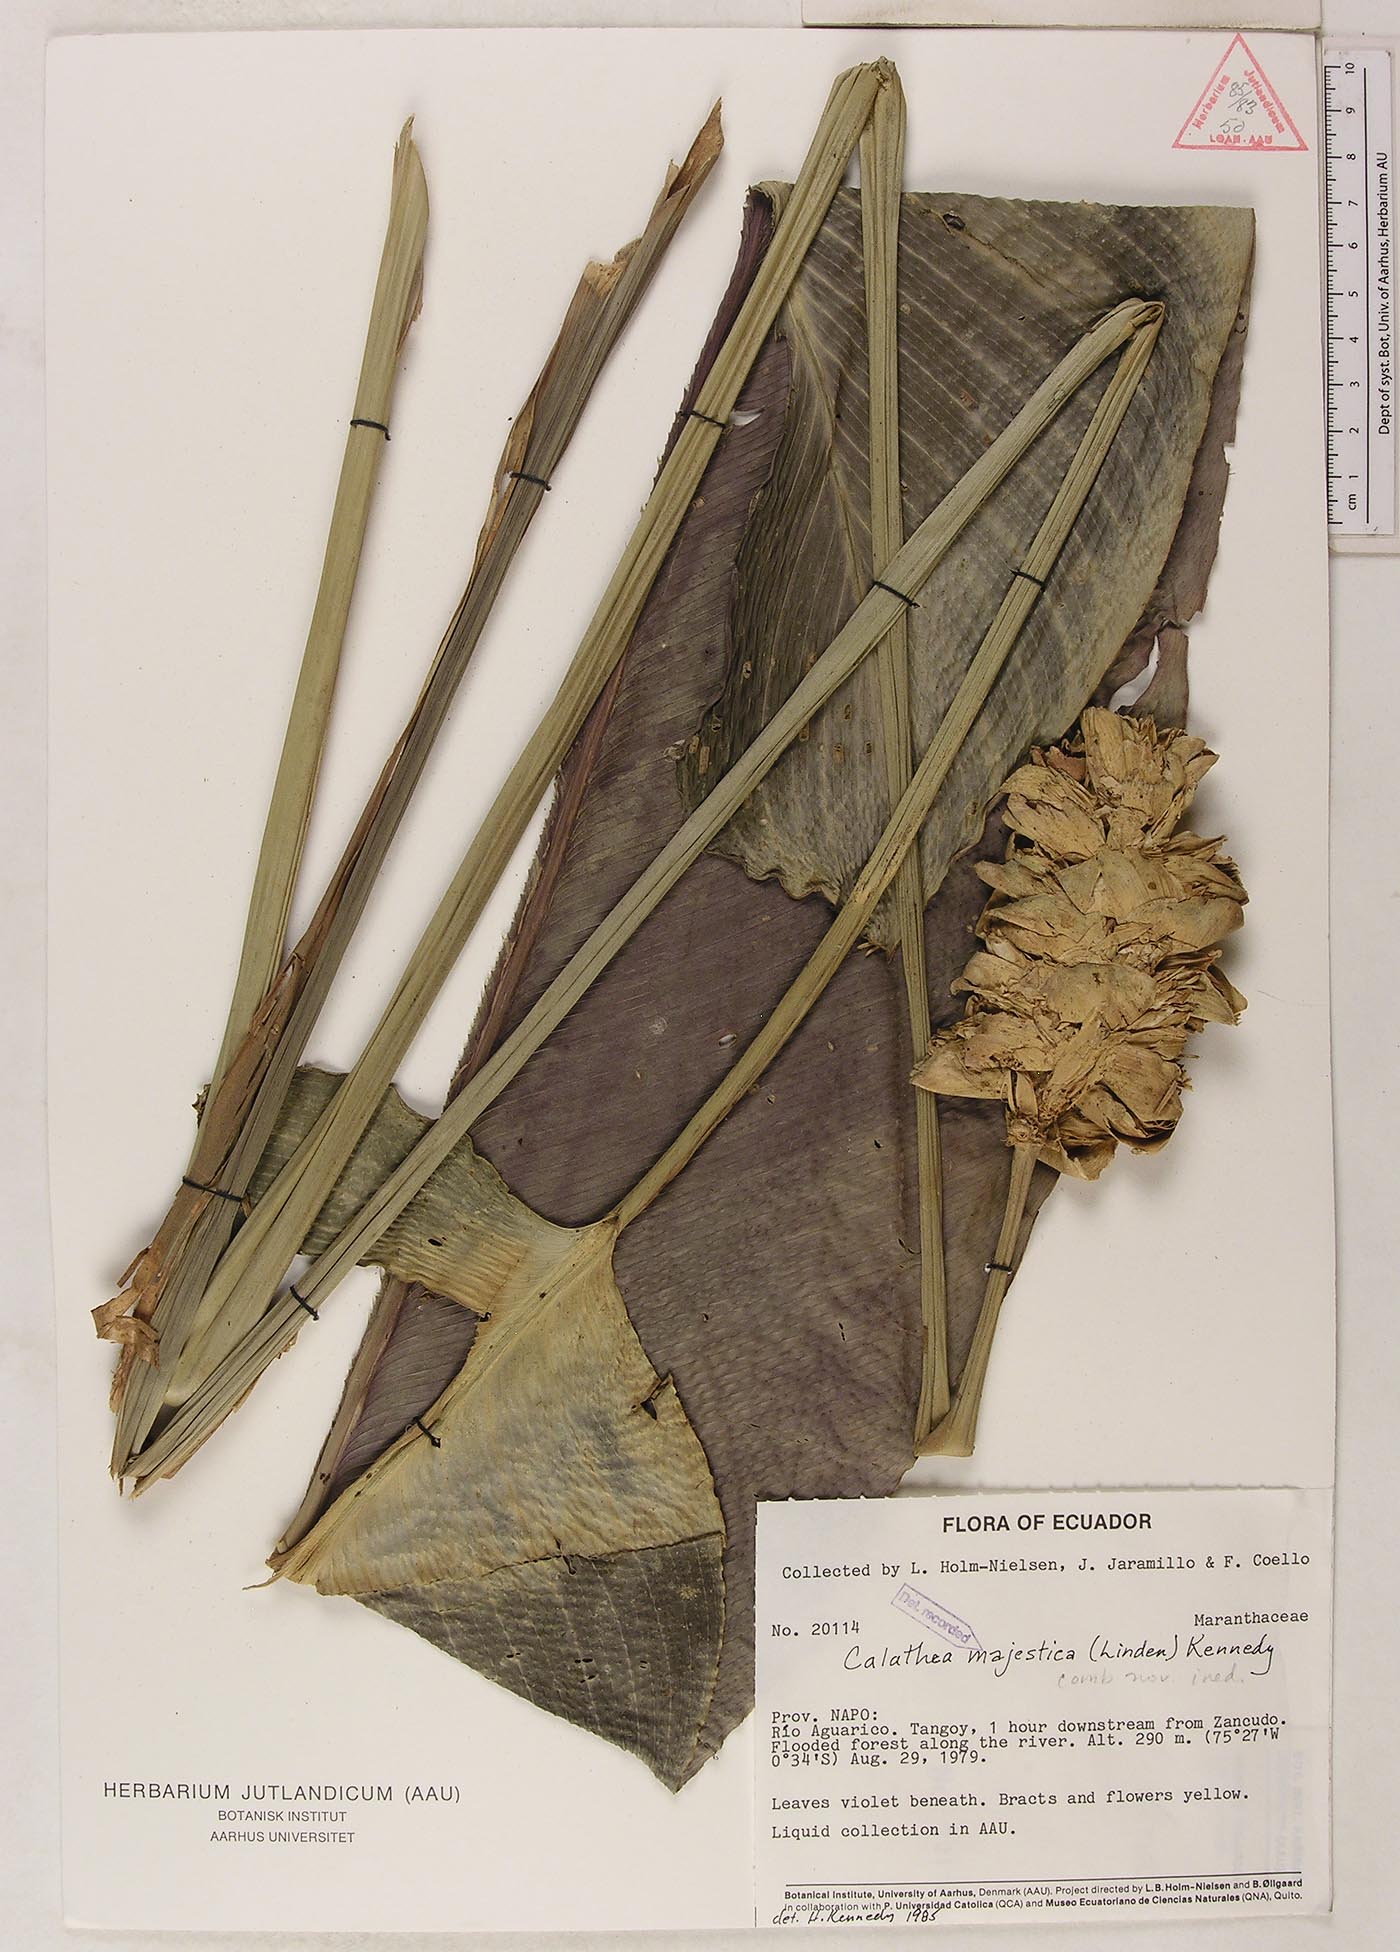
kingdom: Plantae
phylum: Tracheophyta
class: Liliopsida
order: Zingiberales
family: Marantaceae
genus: Goeppertia
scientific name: Goeppertia majestica
